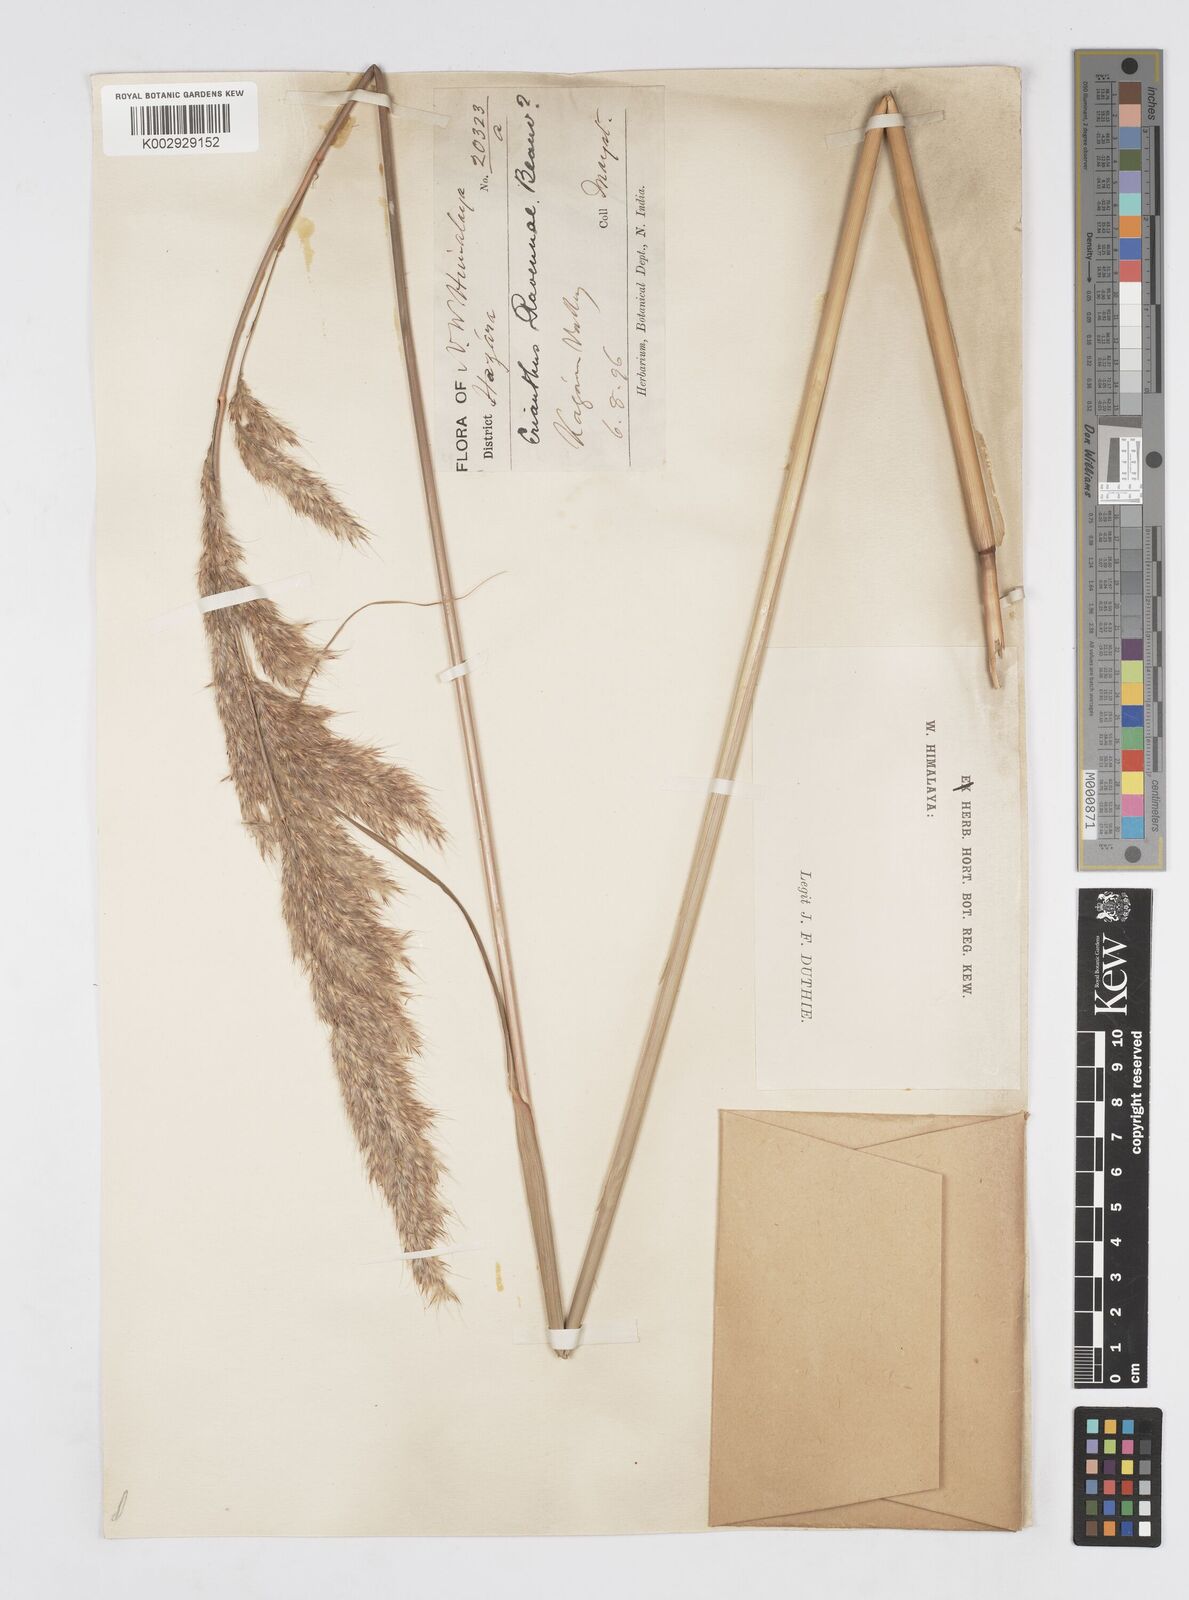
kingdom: Plantae
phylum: Tracheophyta
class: Liliopsida
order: Poales
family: Poaceae
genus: Saccharum
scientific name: Saccharum
